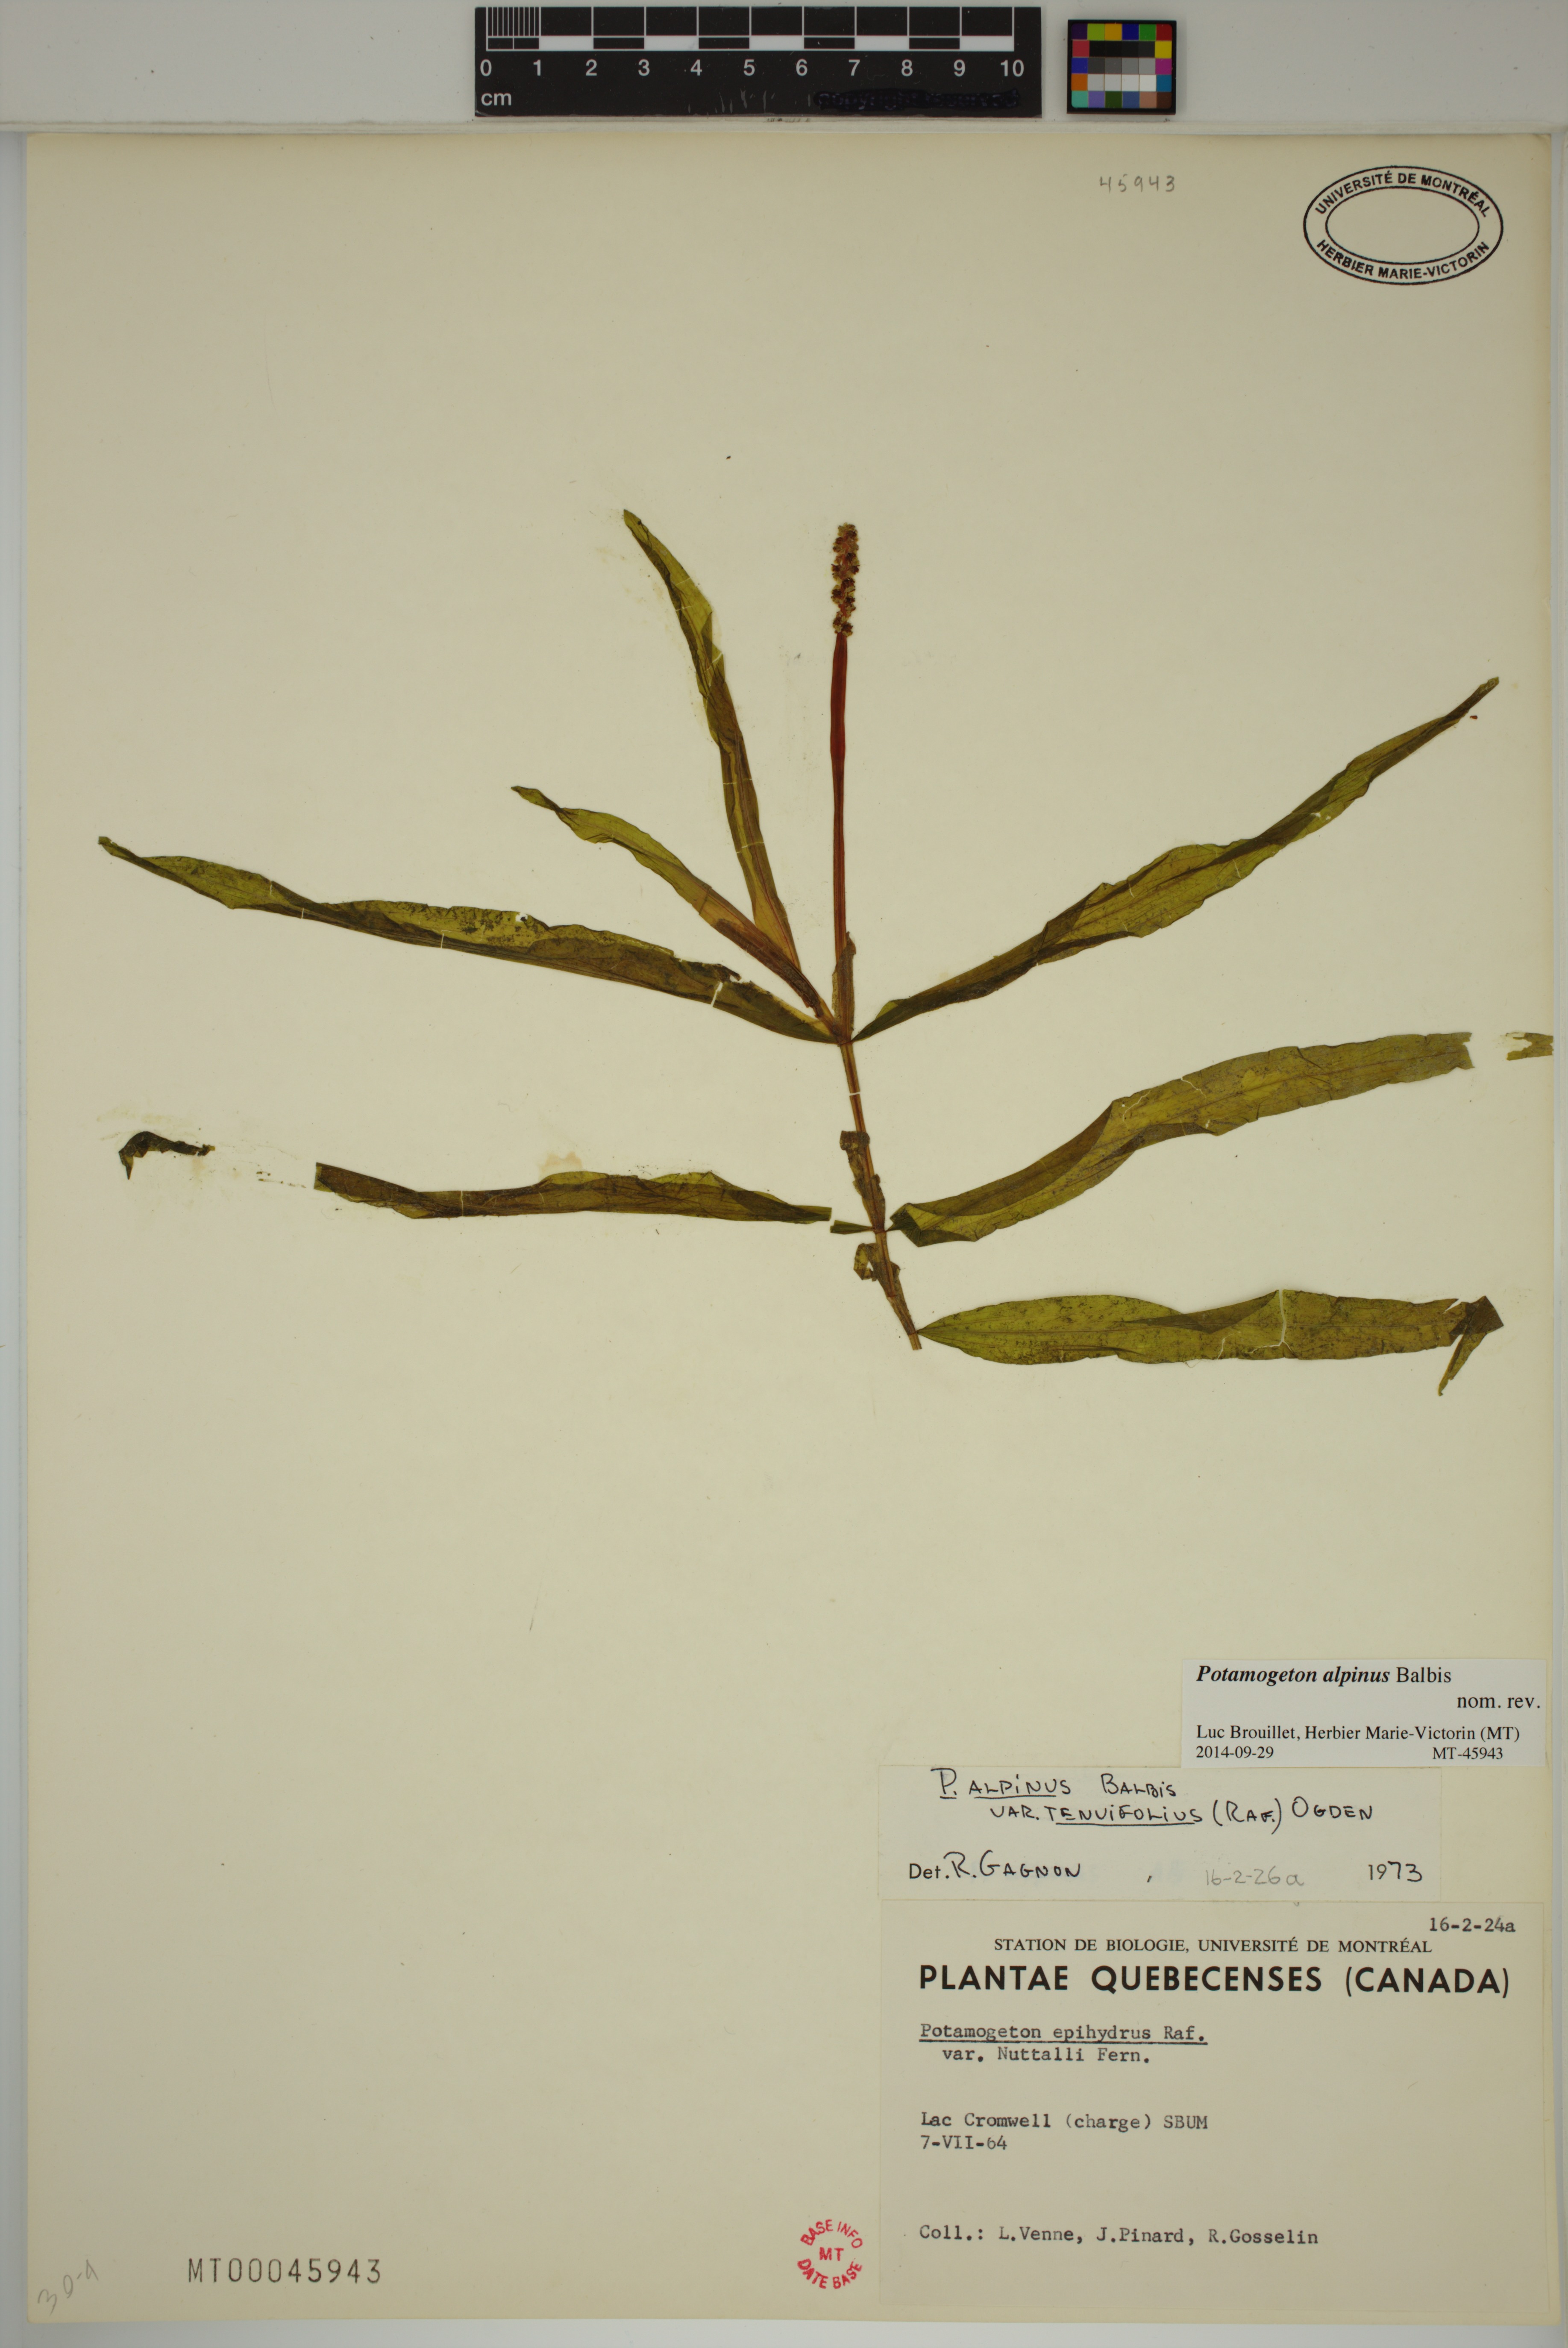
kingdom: Plantae
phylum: Tracheophyta
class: Liliopsida
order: Alismatales
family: Potamogetonaceae
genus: Potamogeton
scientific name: Potamogeton alpinus
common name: Red pondweed
